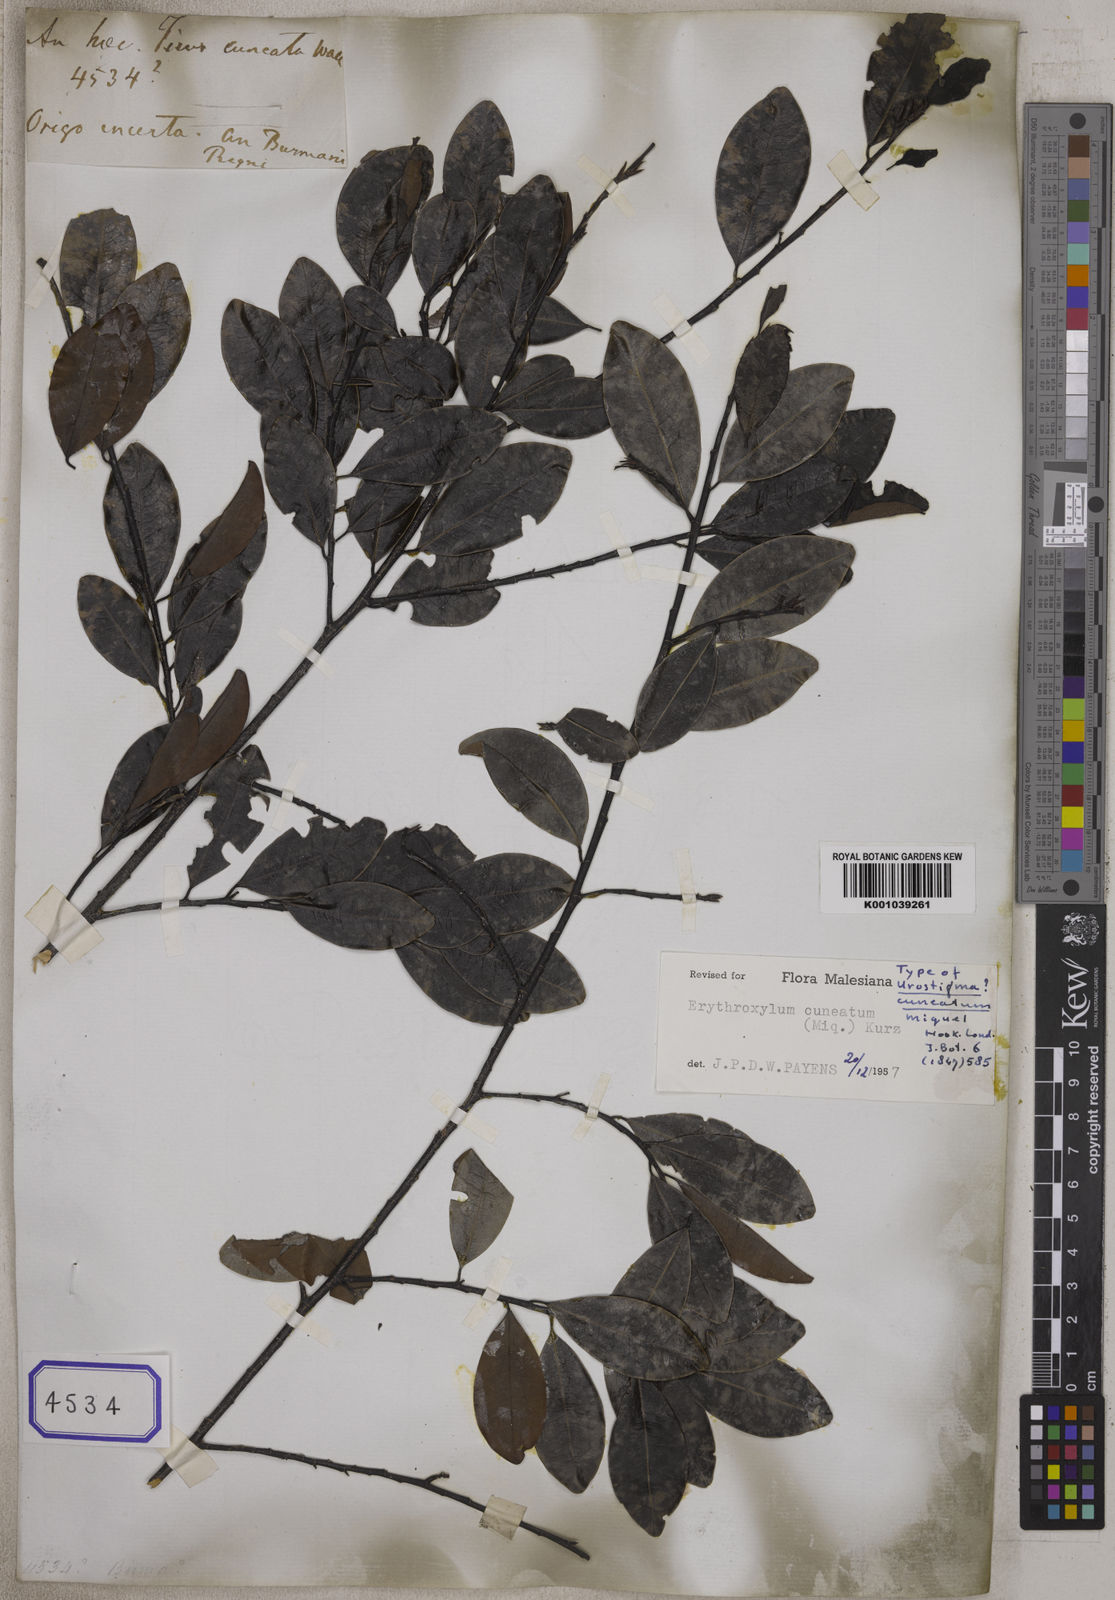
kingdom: Plantae
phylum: Tracheophyta
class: Magnoliopsida
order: Rosales
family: Moraceae
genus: Ficus
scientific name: Ficus
